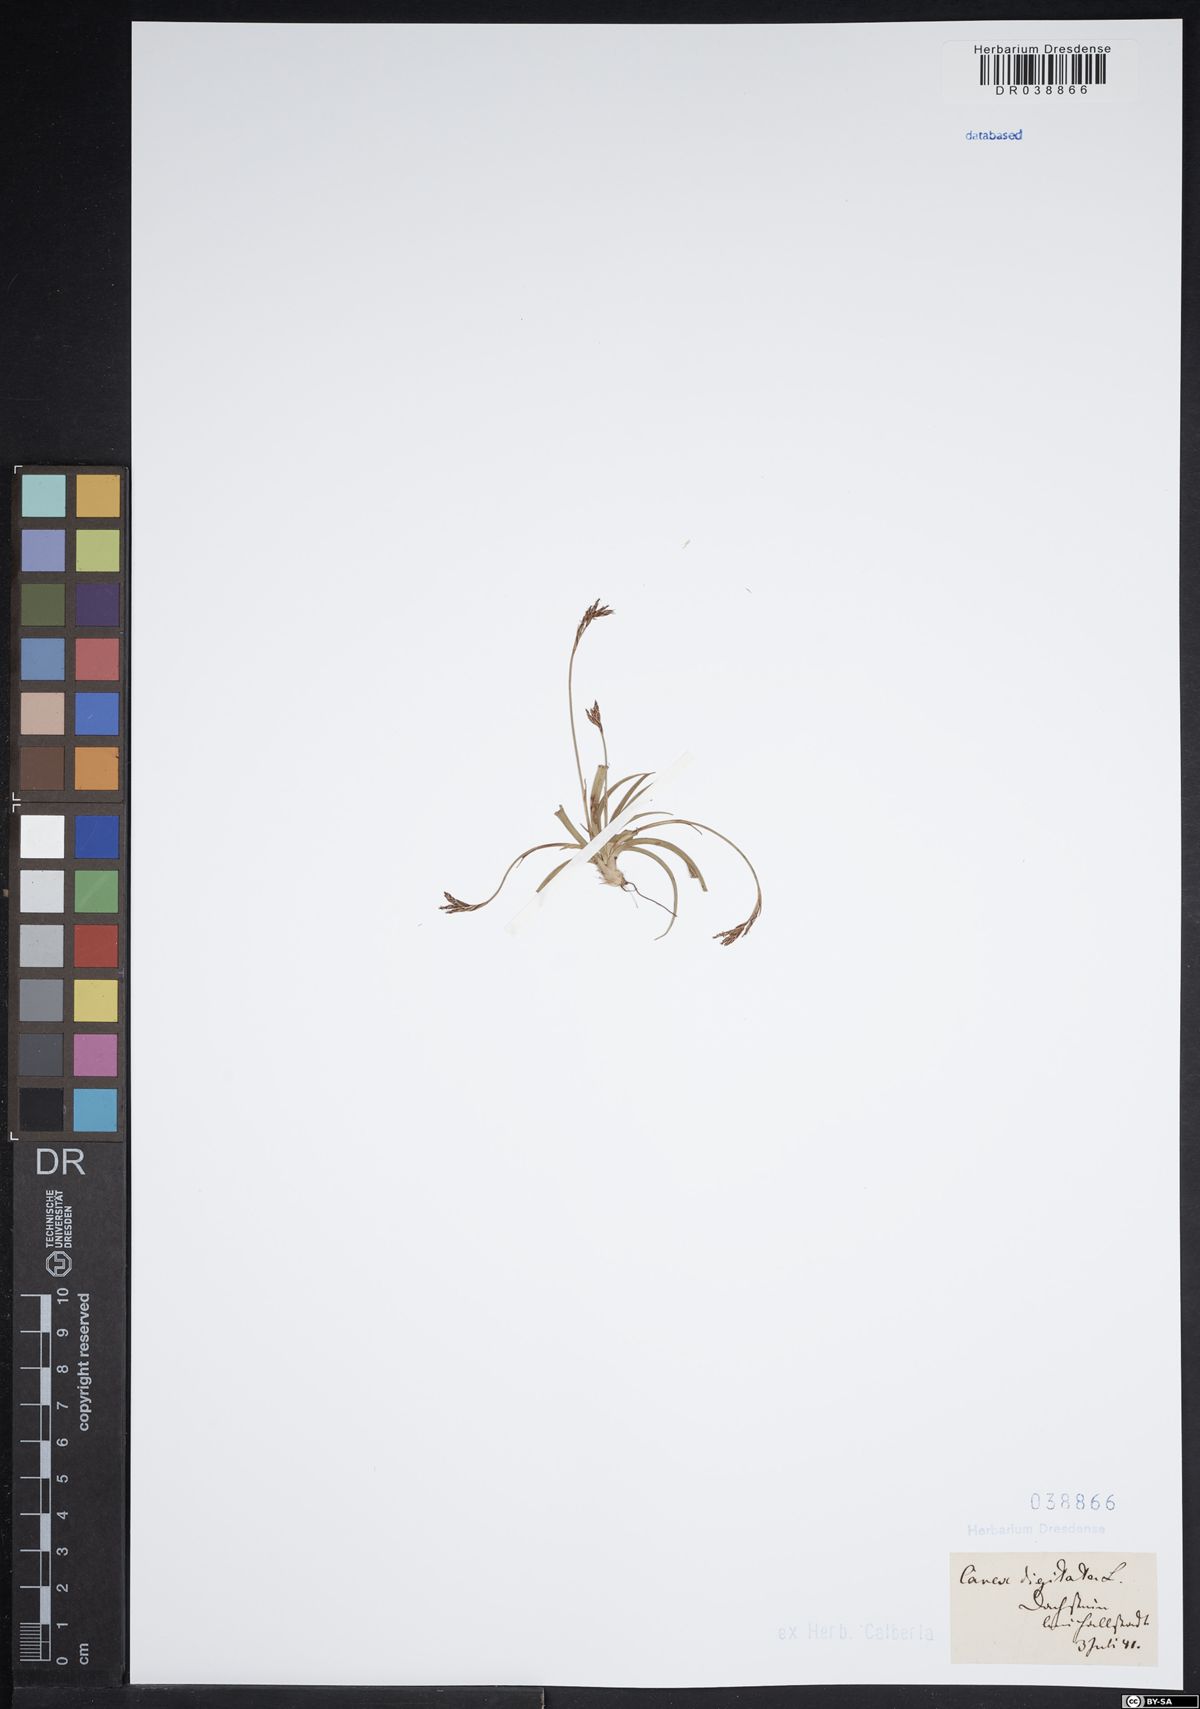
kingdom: Plantae
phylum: Tracheophyta
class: Liliopsida
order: Poales
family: Cyperaceae
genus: Carex
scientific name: Carex digitata
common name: Fingered sedge
